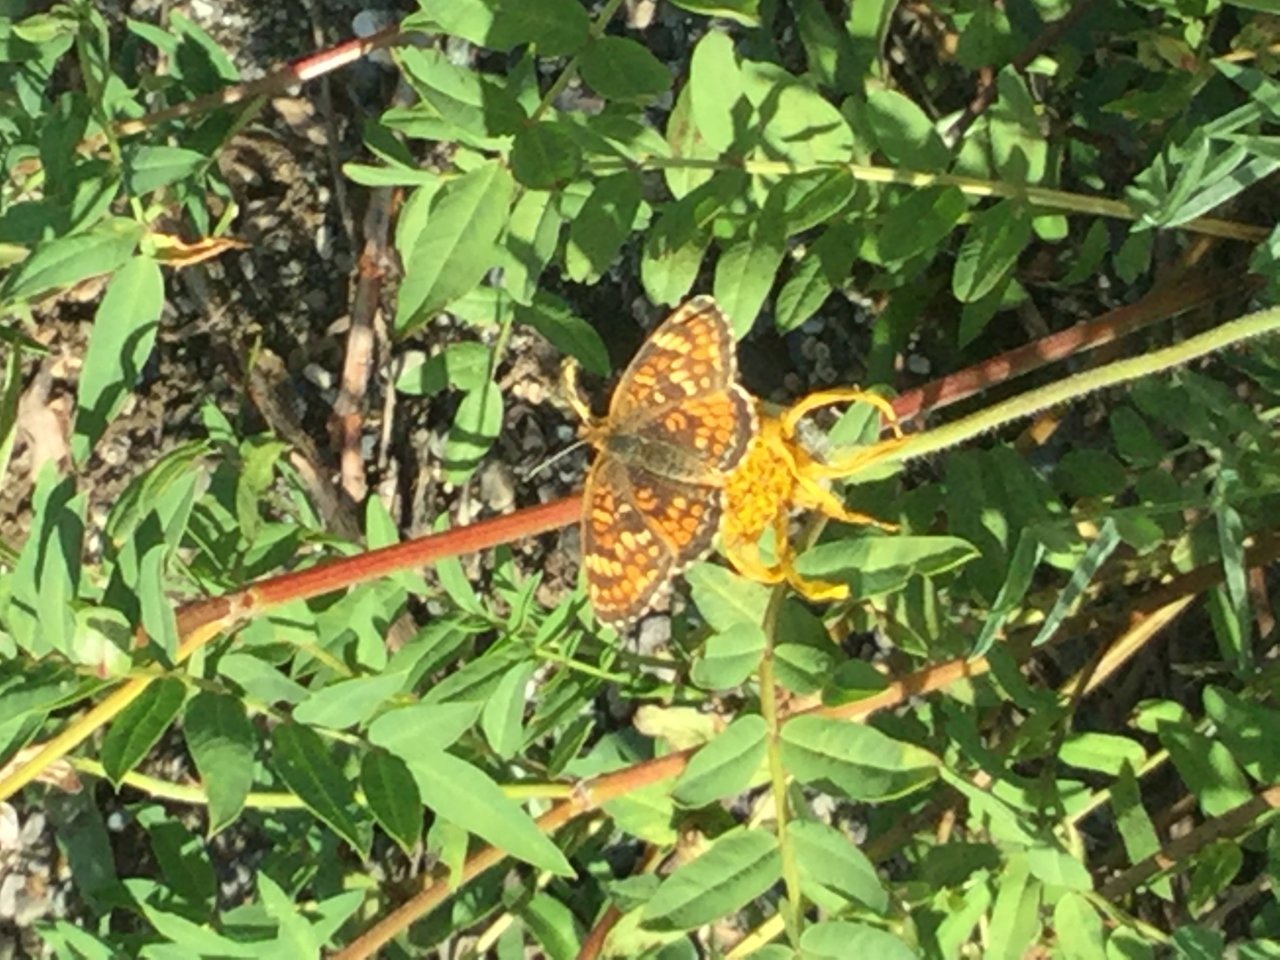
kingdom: Animalia
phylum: Arthropoda
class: Insecta
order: Lepidoptera
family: Nymphalidae
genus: Phyciodes
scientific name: Phyciodes tharos
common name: Field Crescent
